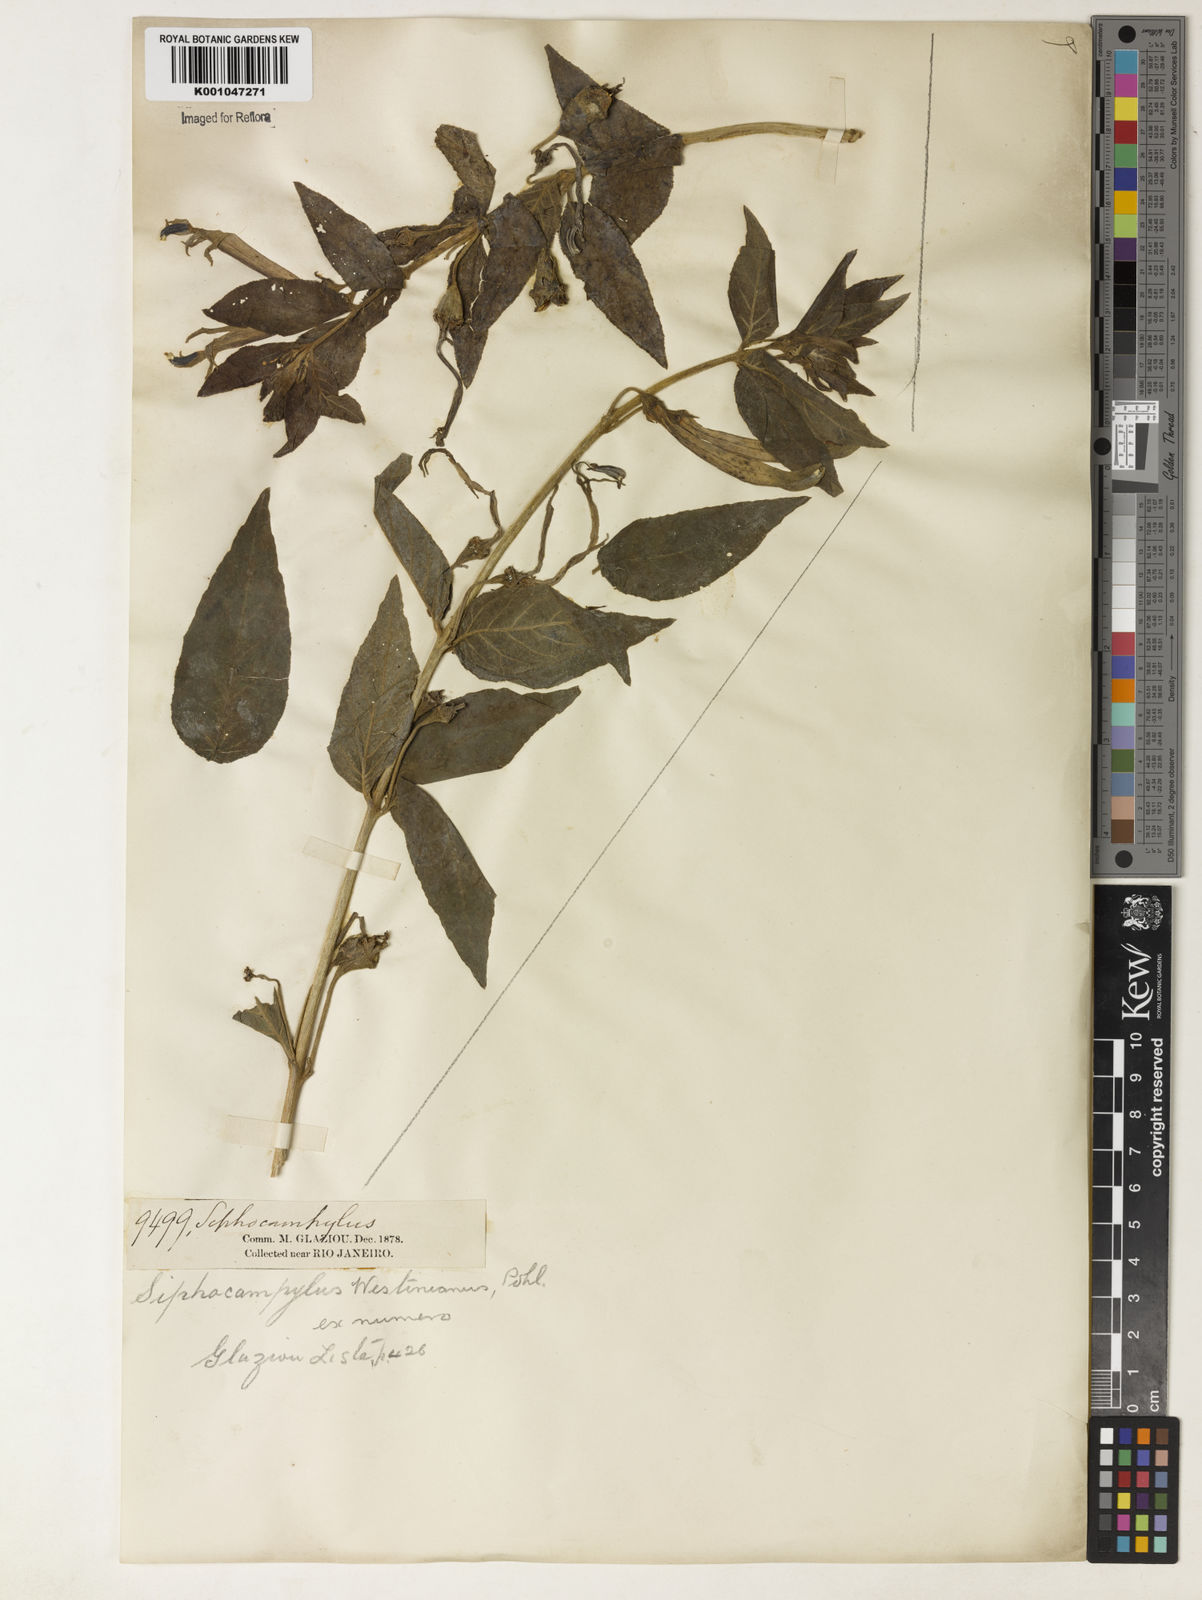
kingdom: Plantae
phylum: Tracheophyta
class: Magnoliopsida
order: Asterales
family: Campanulaceae
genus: Siphocampylus
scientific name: Siphocampylus westinianus
